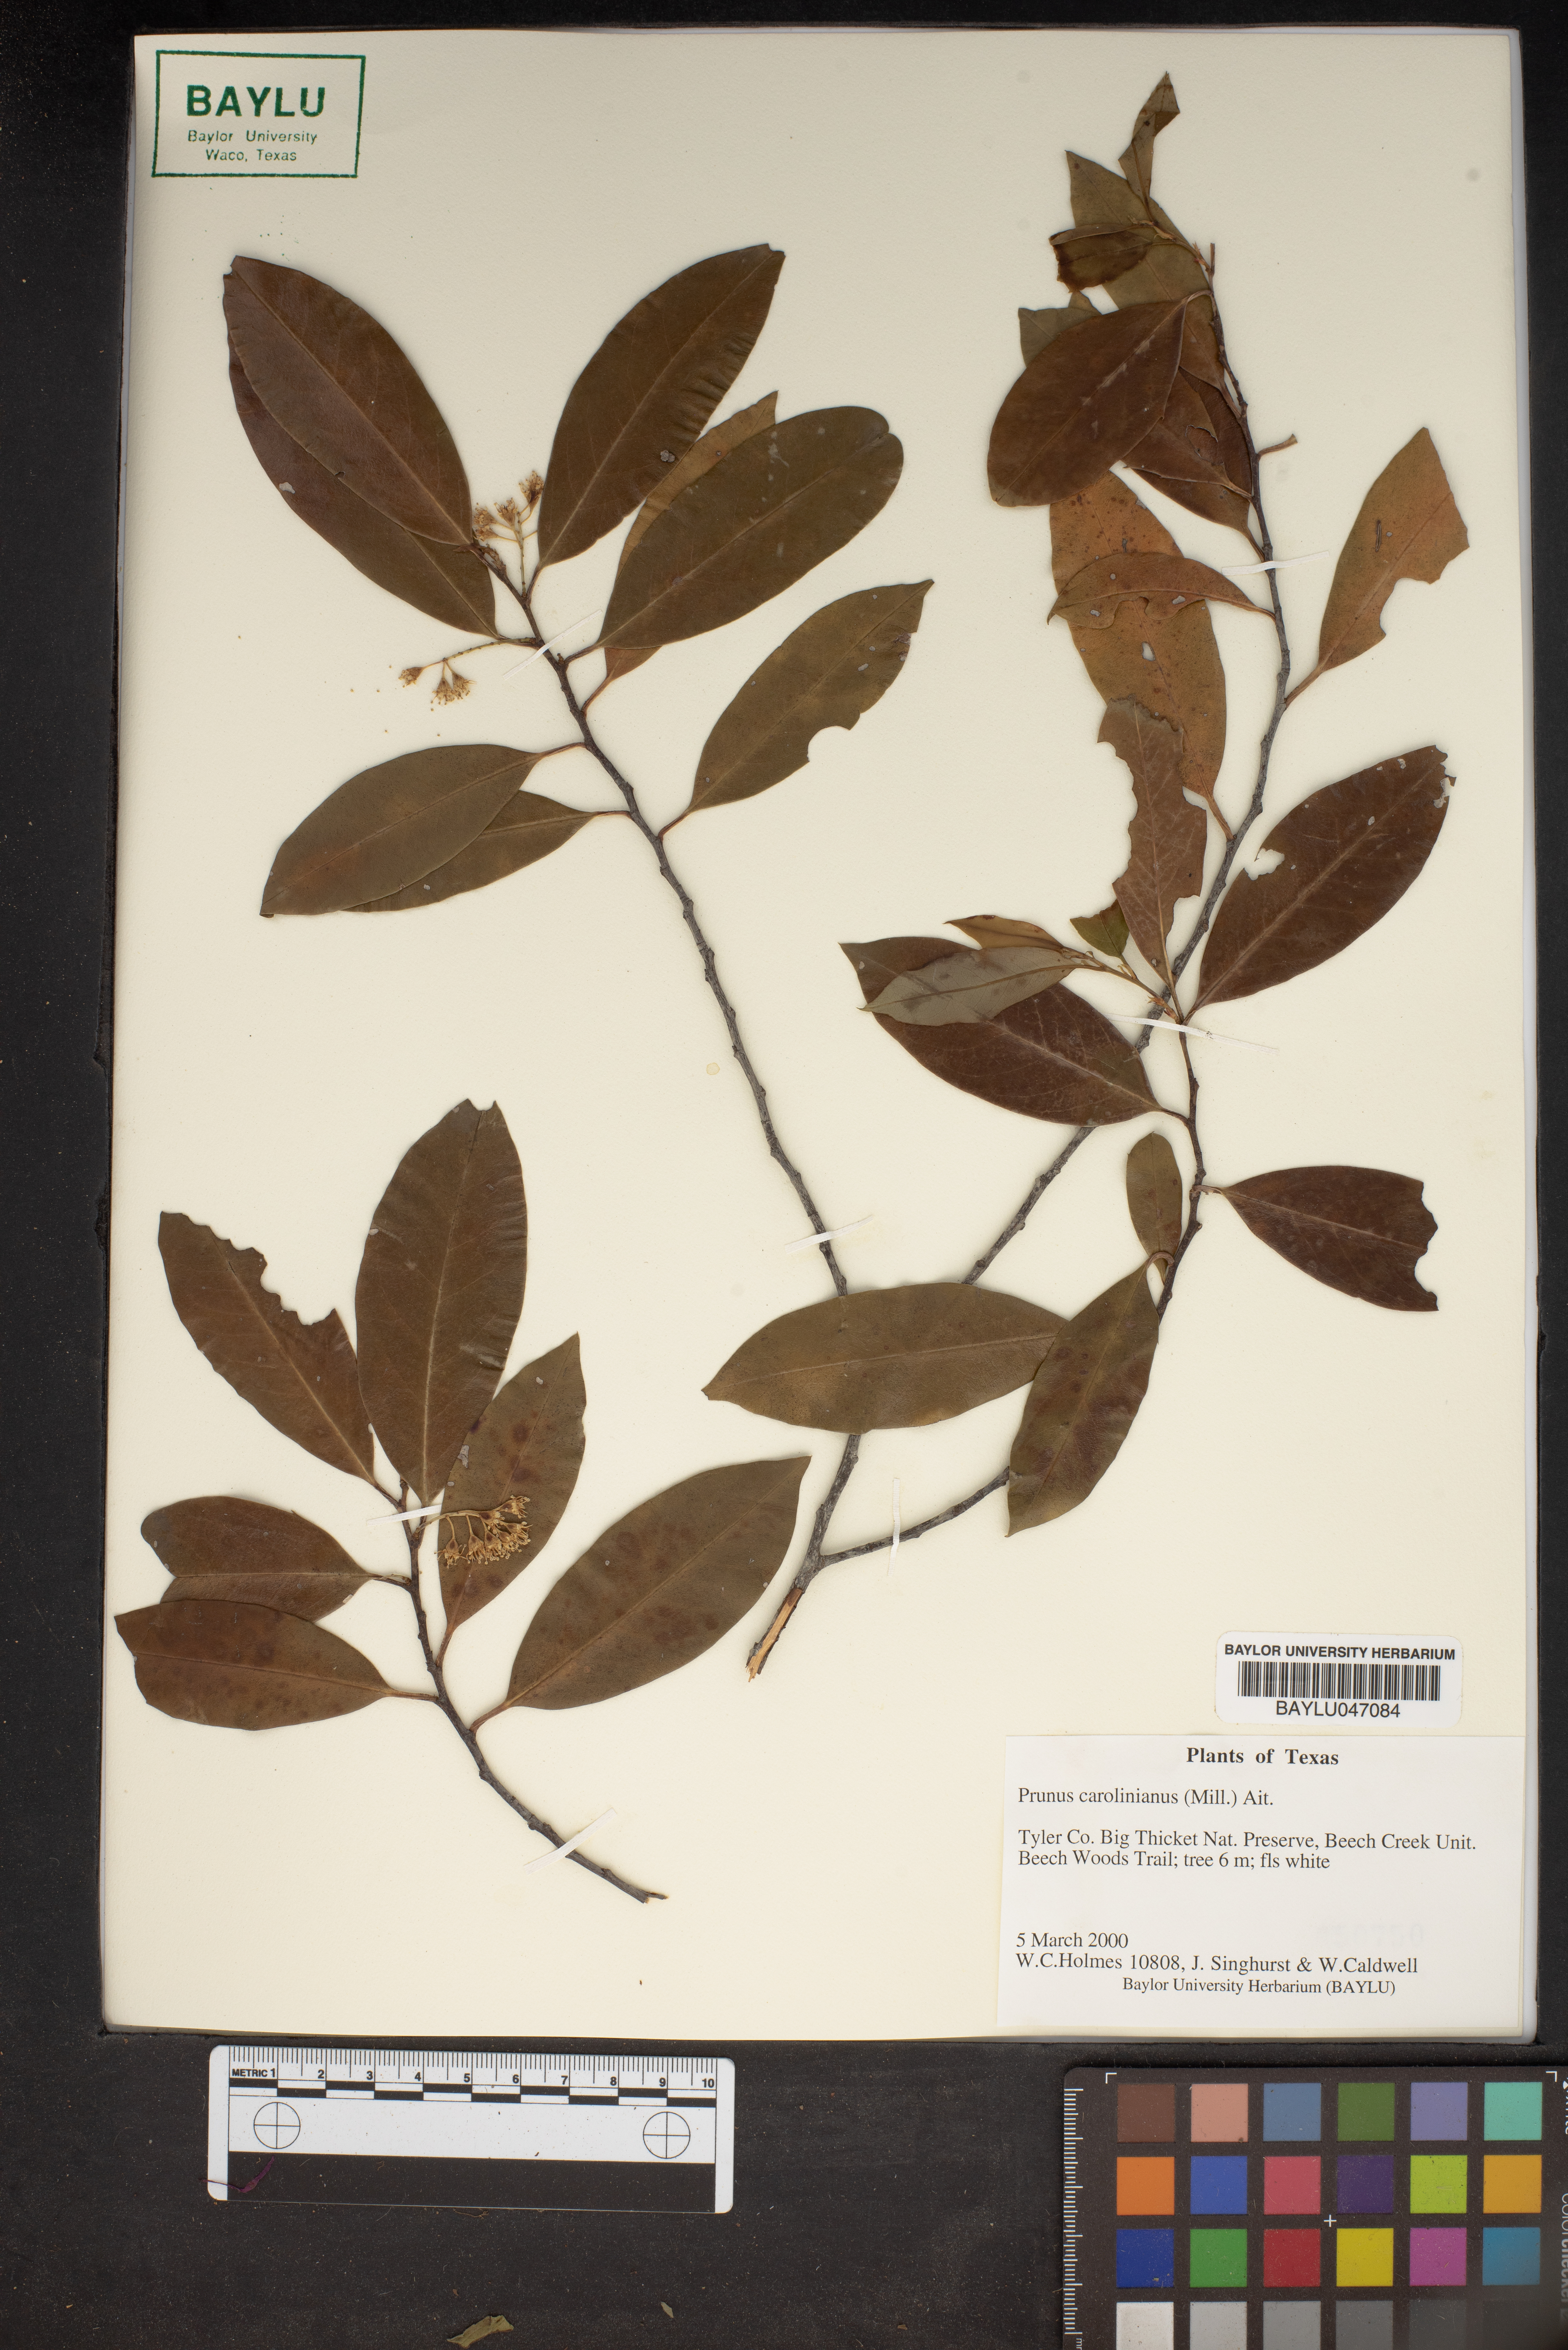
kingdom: Plantae
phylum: Tracheophyta
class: Magnoliopsida
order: Rosales
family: Rosaceae
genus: Prunus
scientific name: Prunus caroliniana
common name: Carolina laurel cherry
